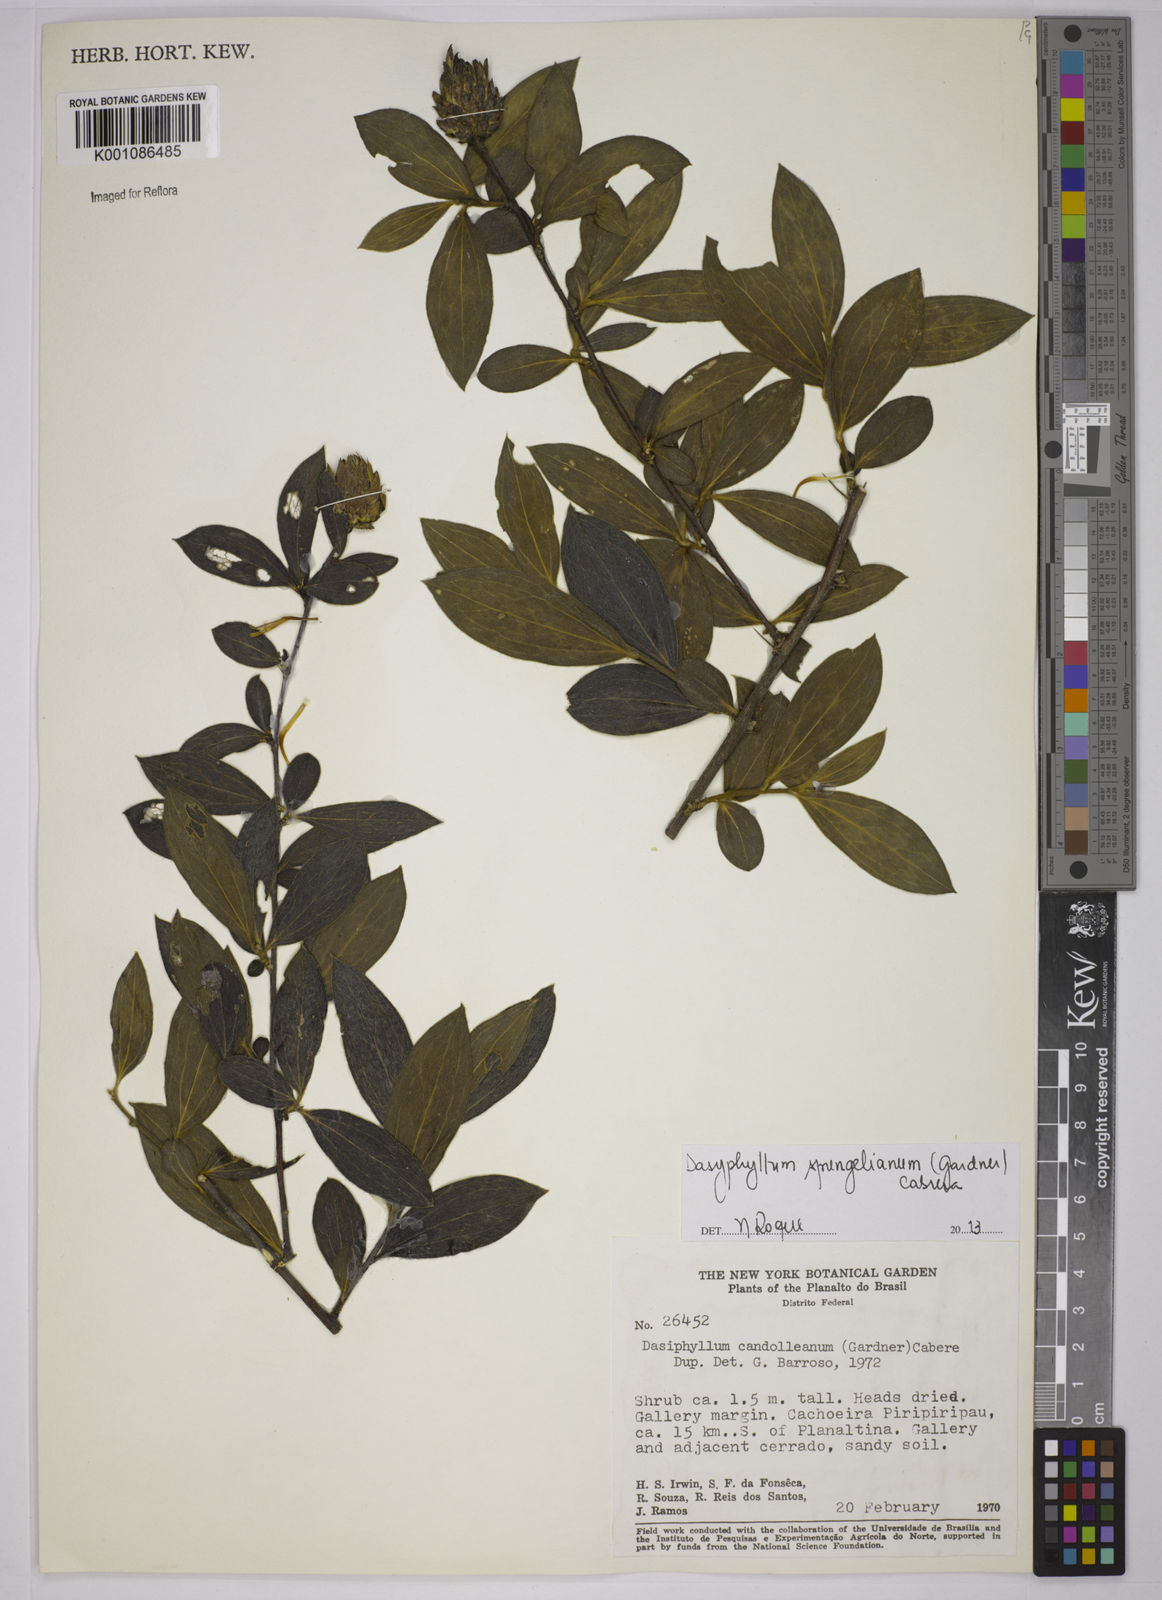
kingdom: Plantae
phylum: Tracheophyta
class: Magnoliopsida
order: Asterales
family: Asteraceae
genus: Dasyphyllum
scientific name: Dasyphyllum sprengelianum
